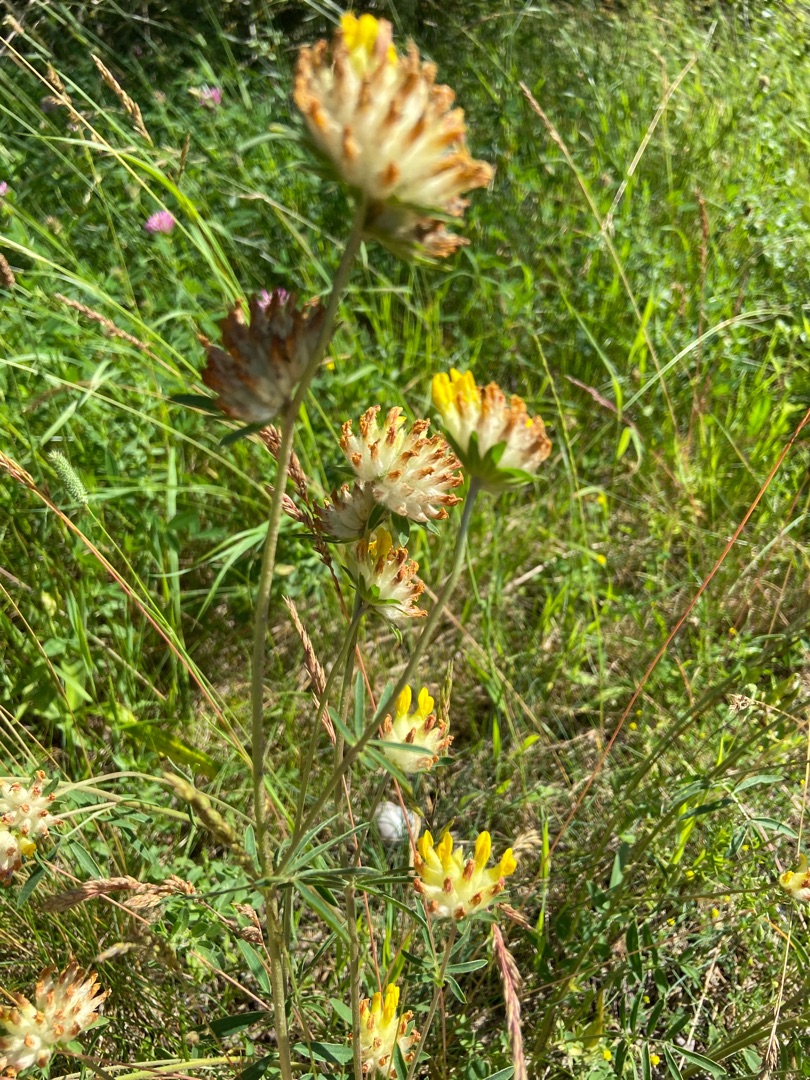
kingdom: Plantae
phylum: Tracheophyta
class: Magnoliopsida
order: Fabales
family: Fabaceae
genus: Anthyllis
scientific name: Anthyllis vulneraria
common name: Rundbælg
